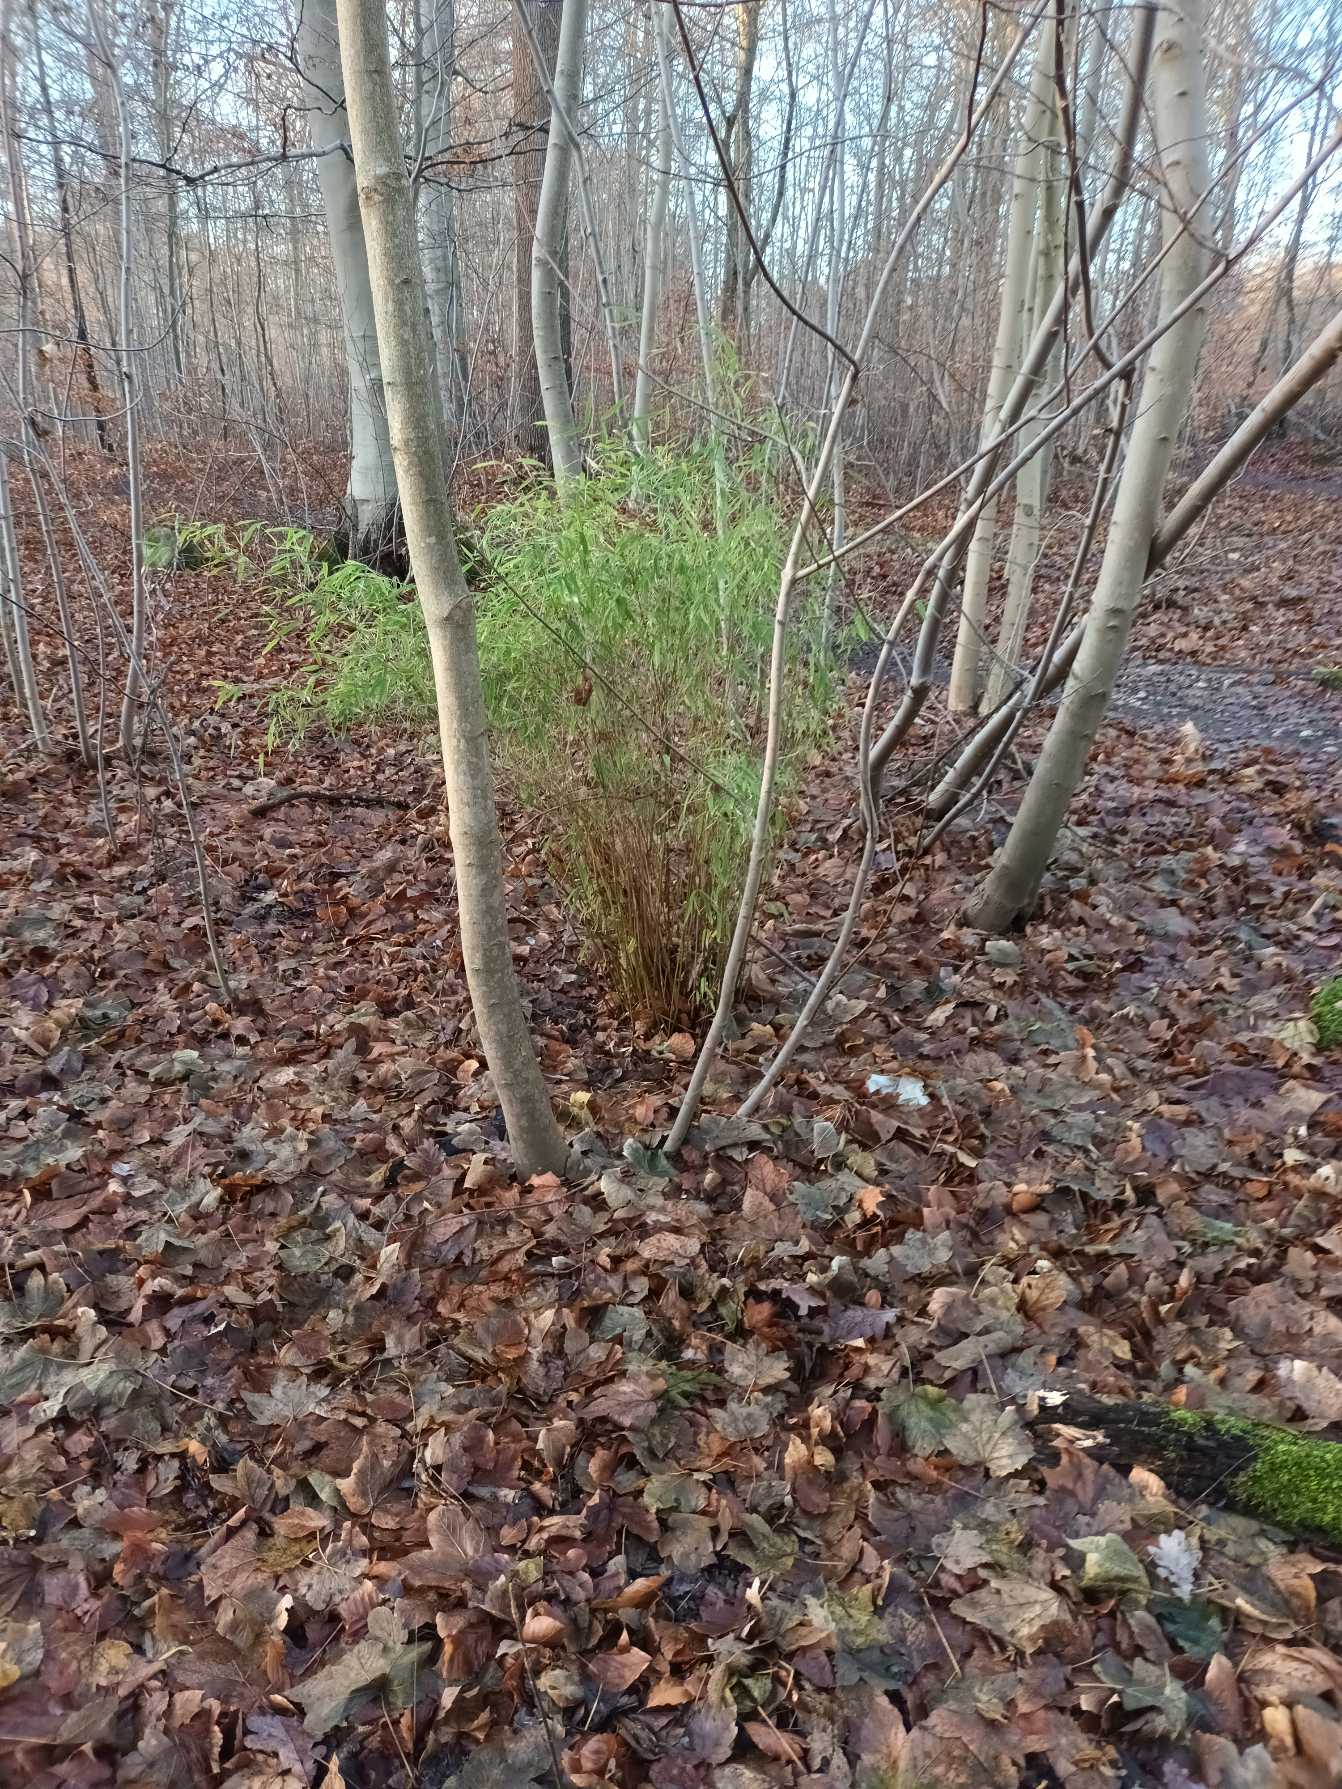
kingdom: Plantae
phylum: Tracheophyta
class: Liliopsida
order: Poales
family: Poaceae
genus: Fargesia
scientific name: Fargesia murielae
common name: Gul bambus
